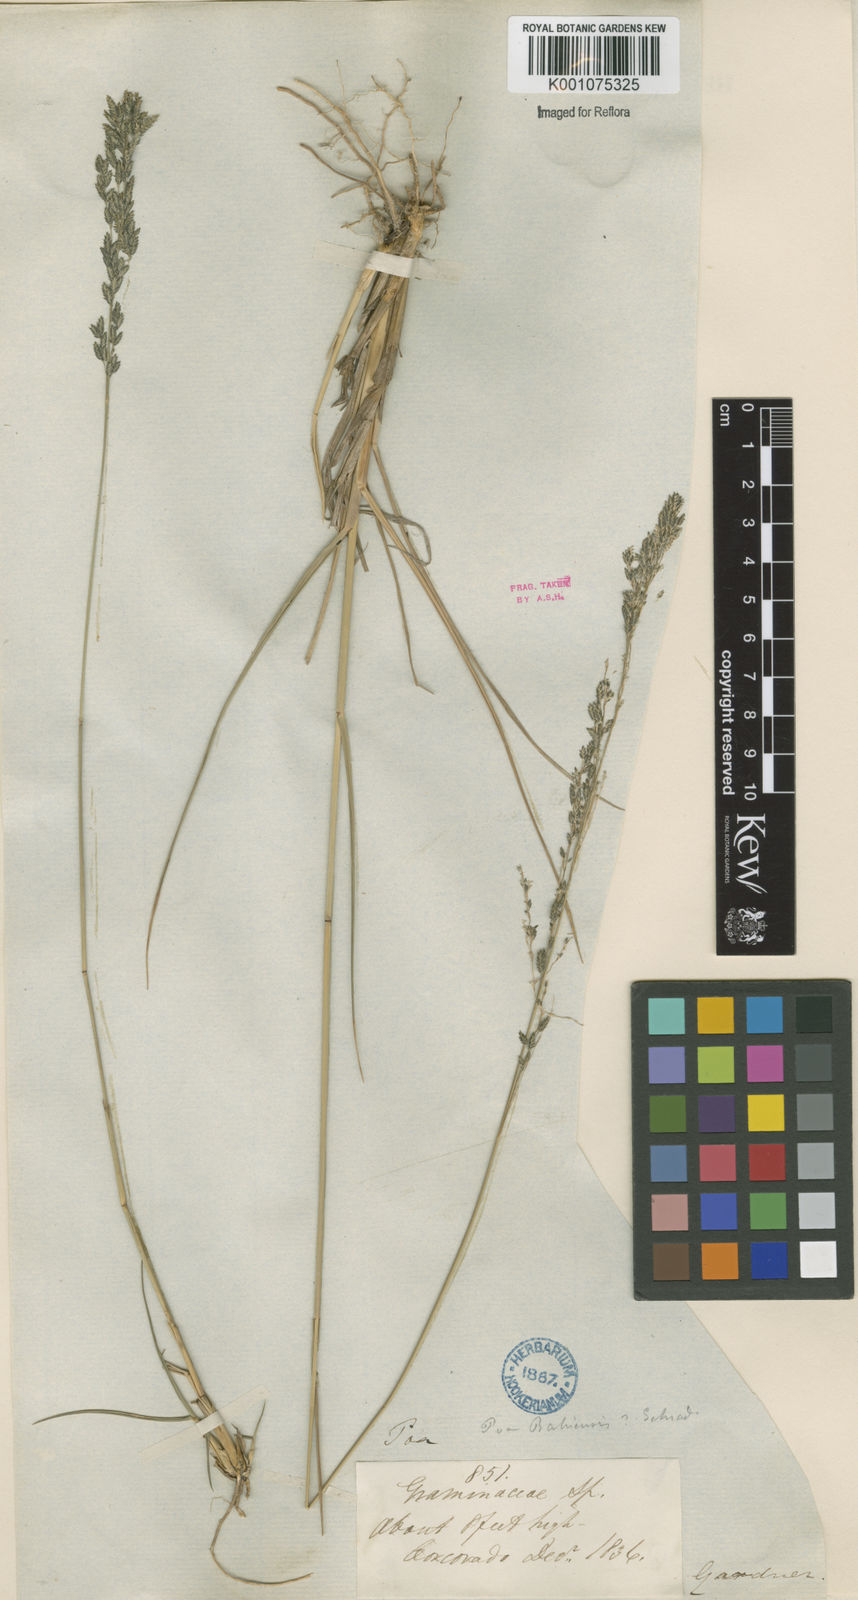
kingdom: Plantae
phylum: Tracheophyta
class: Liliopsida
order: Poales
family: Poaceae
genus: Eragrostis
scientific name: Eragrostis bahiensis
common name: Bahia lovegrass
